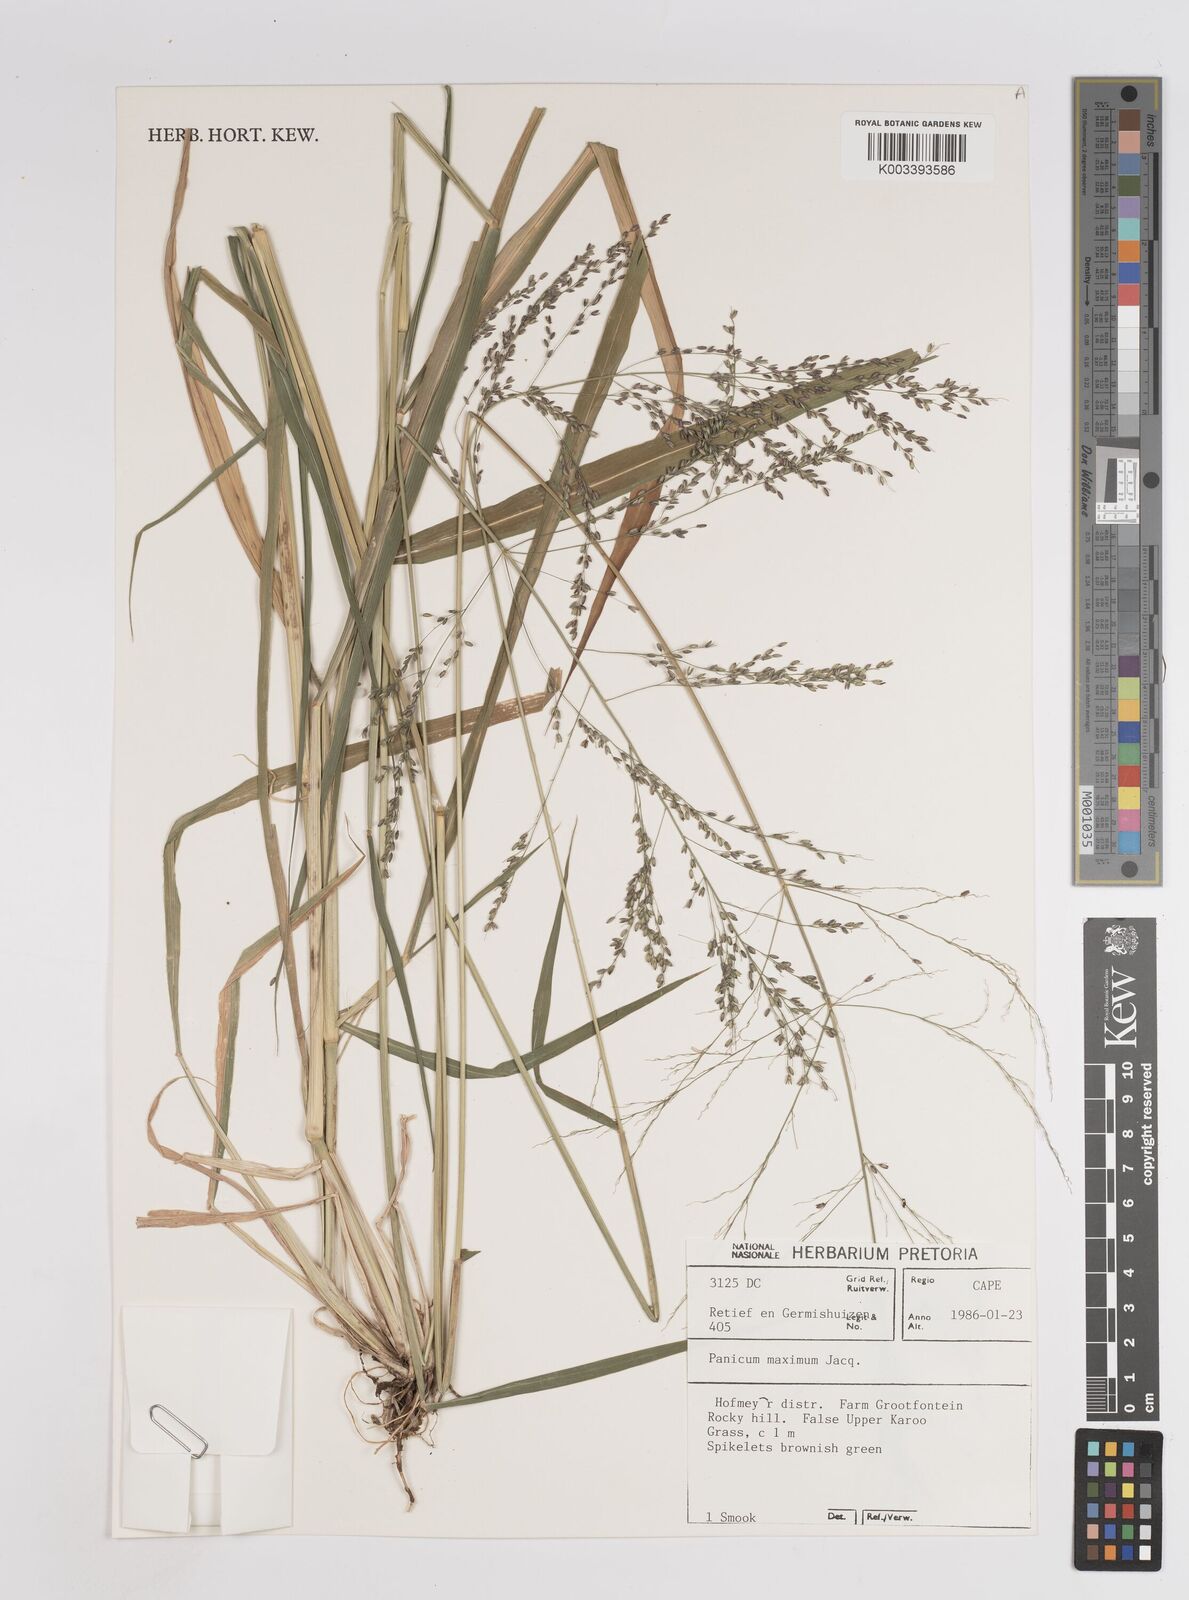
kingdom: Plantae
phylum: Tracheophyta
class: Liliopsida
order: Poales
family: Poaceae
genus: Megathyrsus
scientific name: Megathyrsus maximus
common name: Guineagrass
